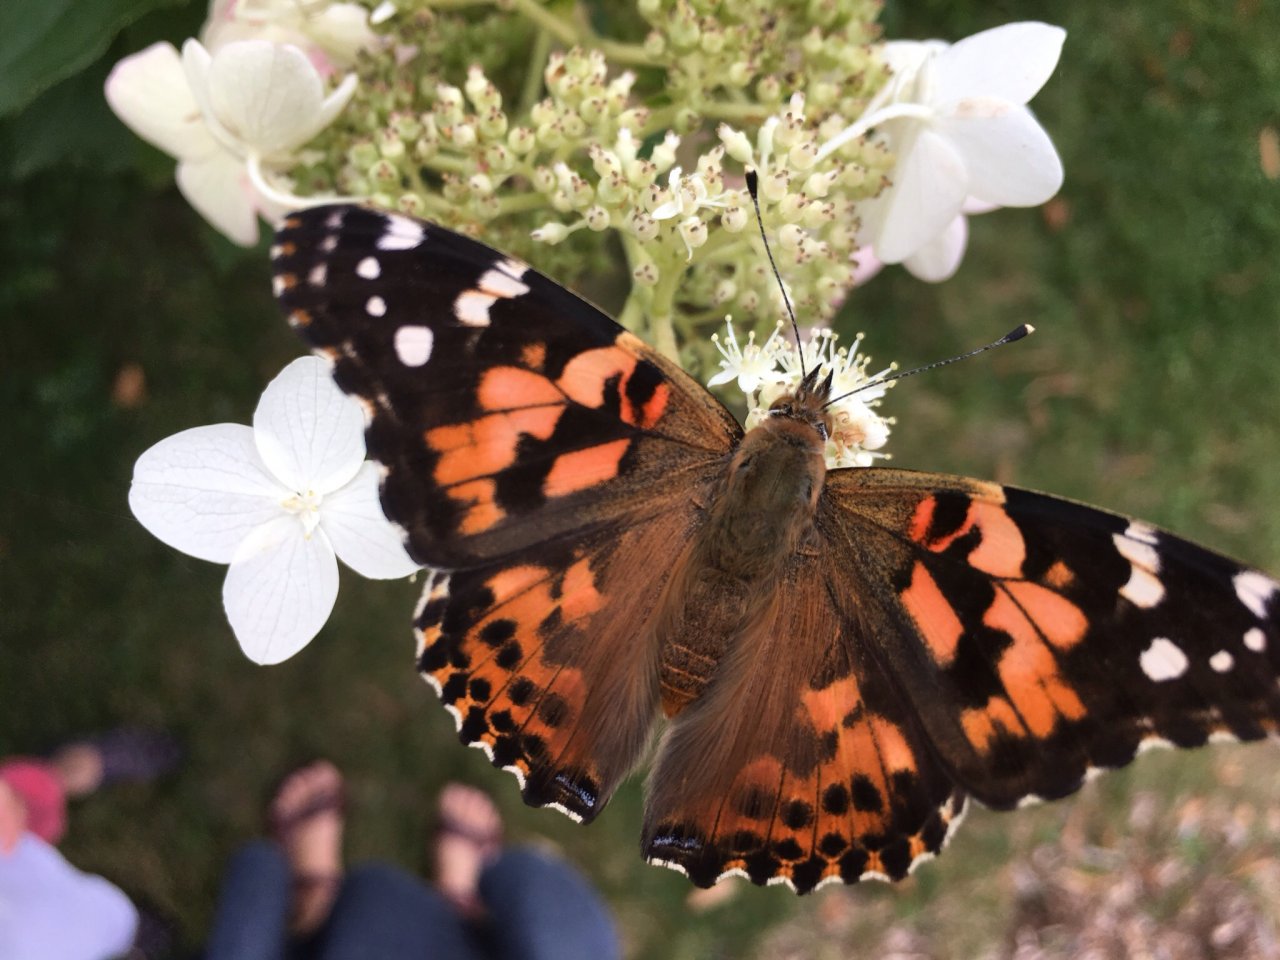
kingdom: Animalia
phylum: Arthropoda
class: Insecta
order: Lepidoptera
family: Nymphalidae
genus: Vanessa
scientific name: Vanessa cardui
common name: Painted Lady
